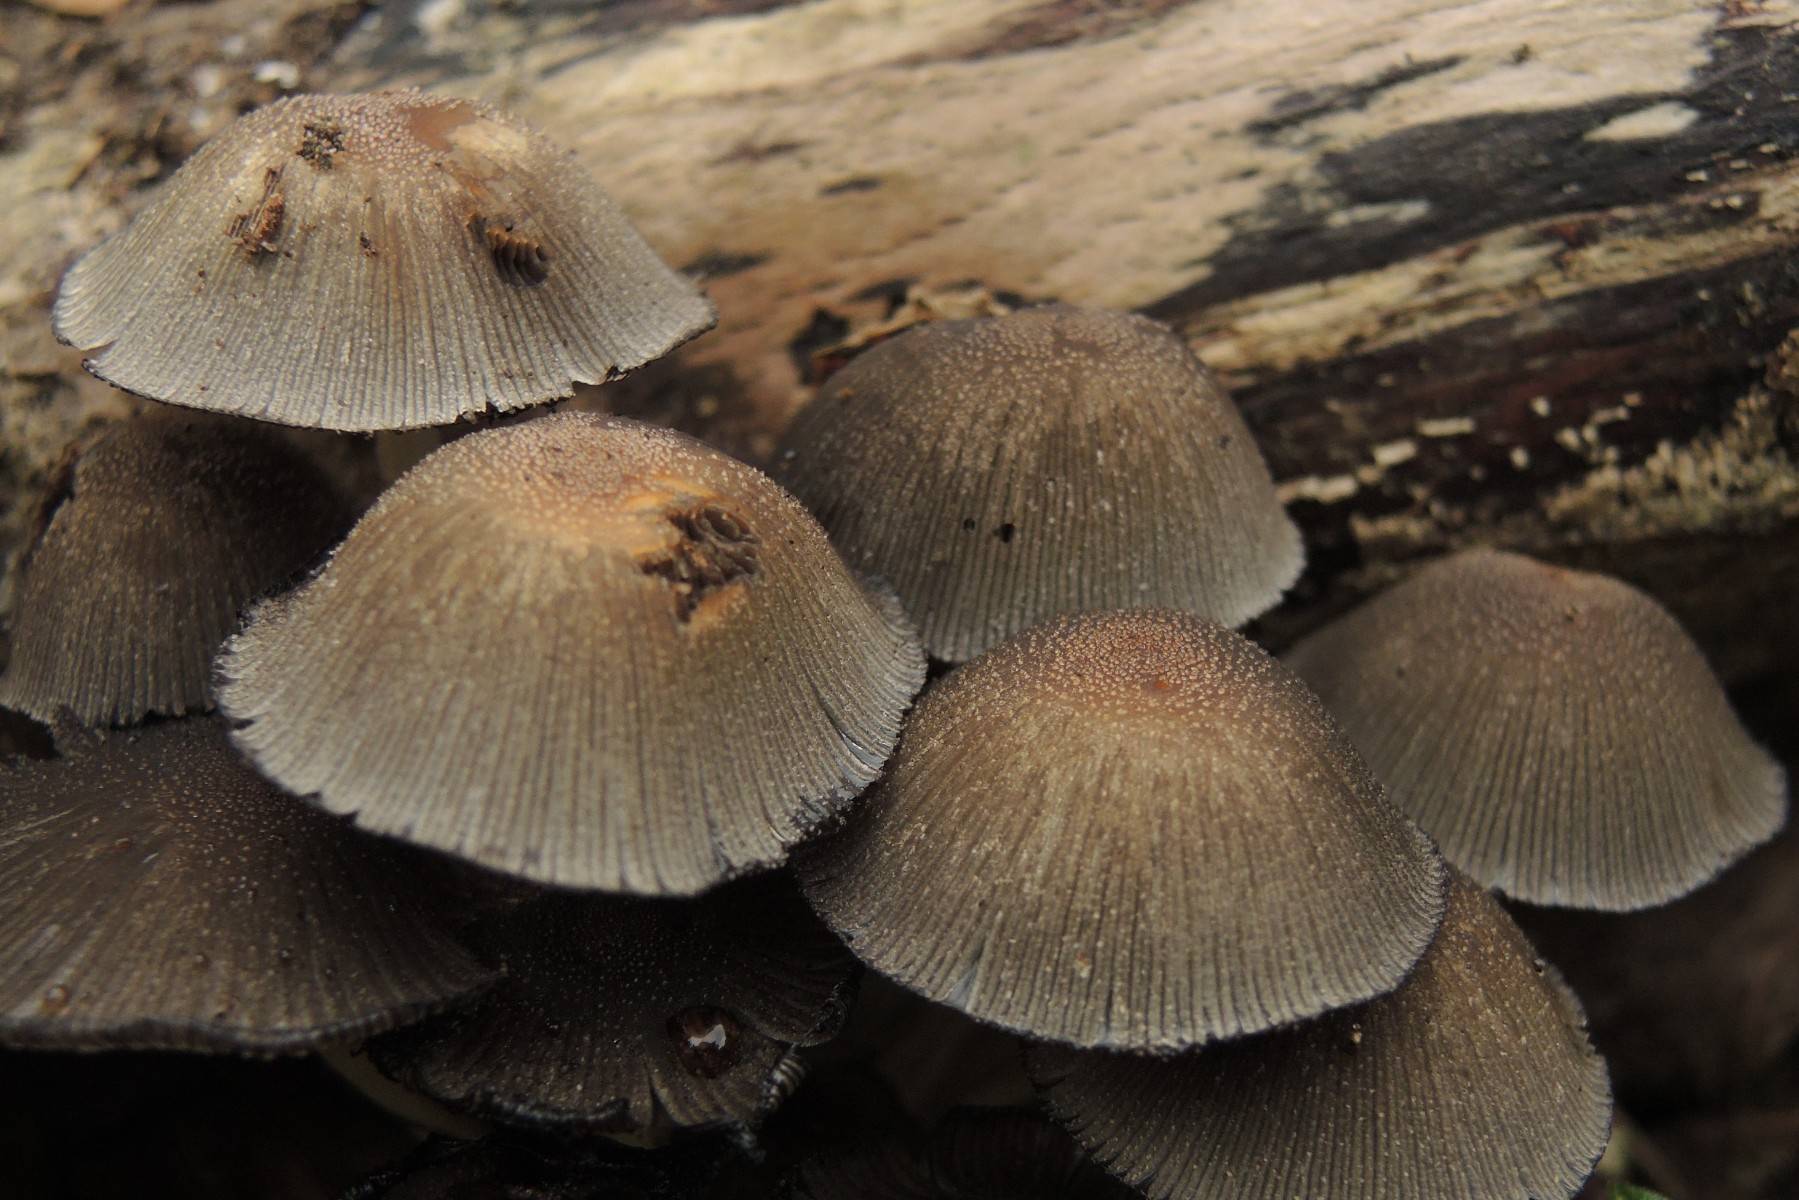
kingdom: Fungi
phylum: Basidiomycota
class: Agaricomycetes
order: Agaricales
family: Psathyrellaceae
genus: Coprinellus
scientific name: Coprinellus saccharinus
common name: sukker-blækhat
